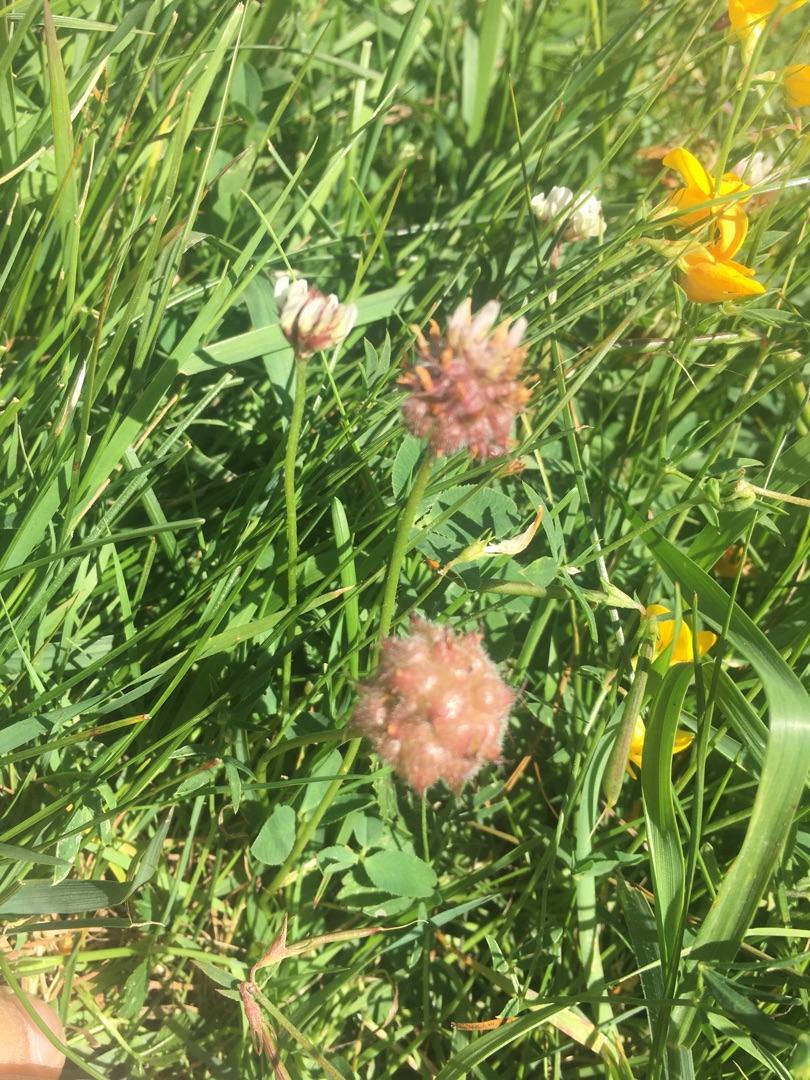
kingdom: Plantae
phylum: Tracheophyta
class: Magnoliopsida
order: Fabales
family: Fabaceae
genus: Trifolium
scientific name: Trifolium fragiferum
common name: Jordbær-kløver
